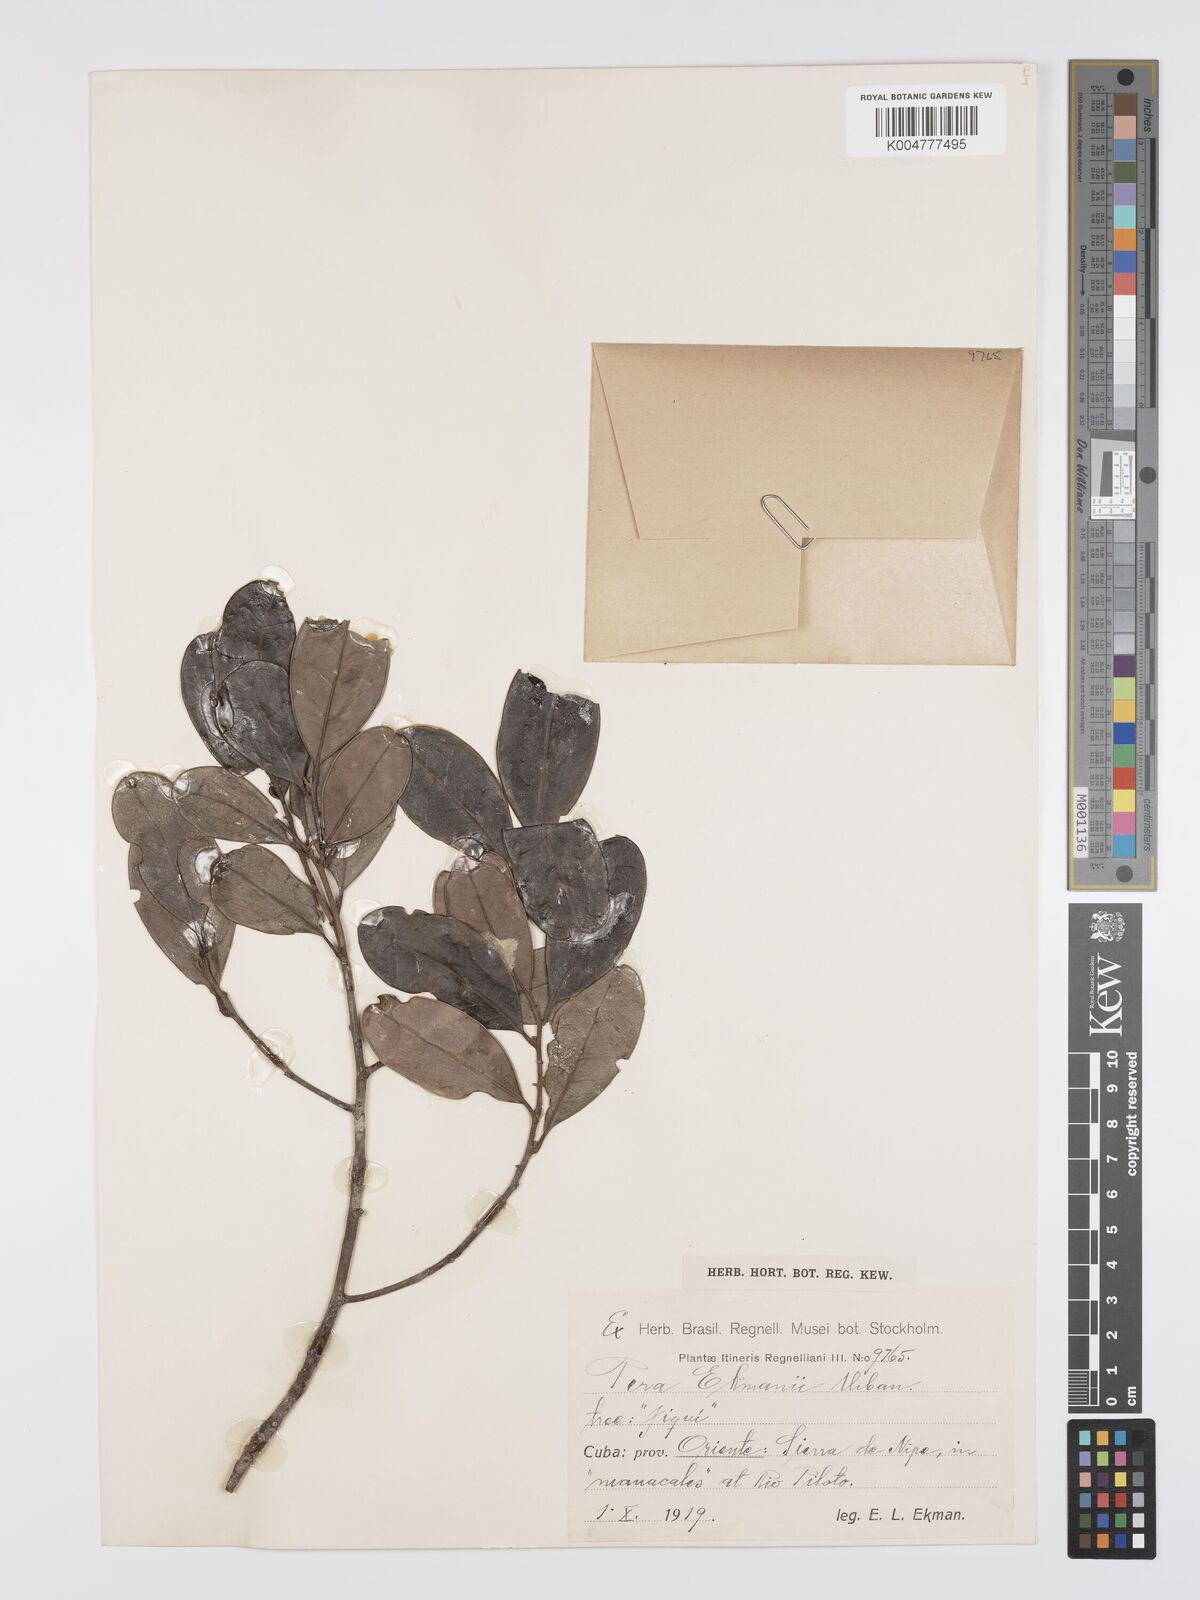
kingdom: Plantae
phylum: Tracheophyta
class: Magnoliopsida
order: Malpighiales
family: Peraceae
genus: Pera
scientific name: Pera ekmanii
